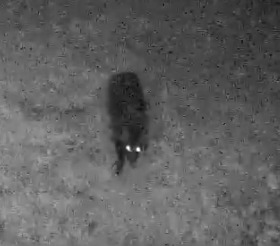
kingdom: Animalia
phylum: Chordata
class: Mammalia
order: Carnivora
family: Canidae
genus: Nyctereutes
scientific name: Nyctereutes procyonoides
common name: Mårhund
